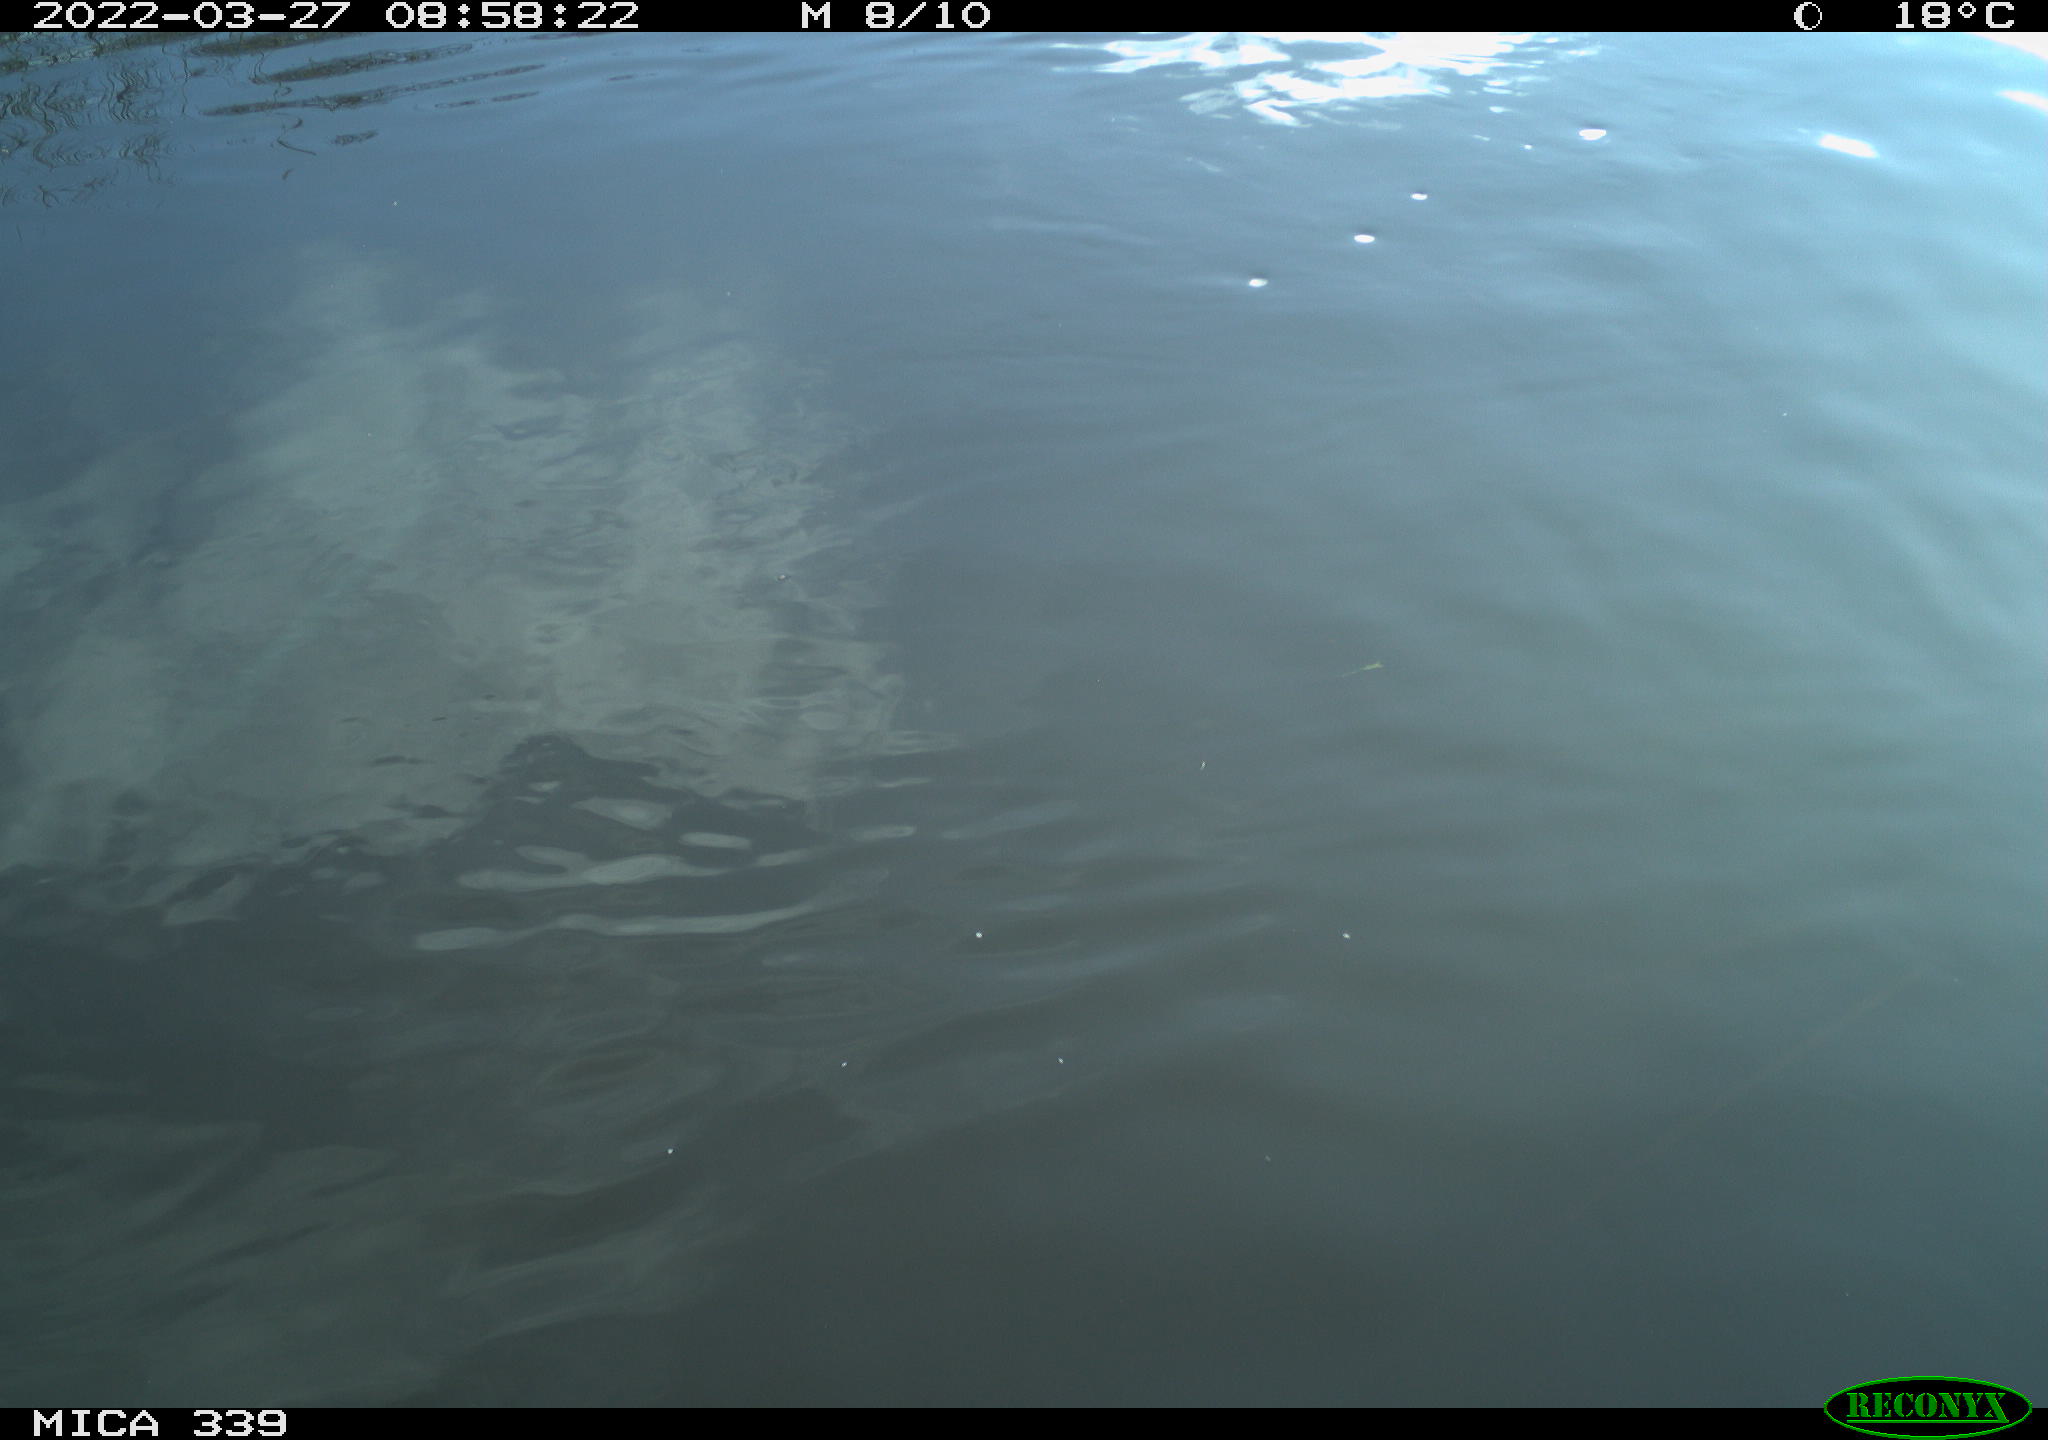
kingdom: Animalia
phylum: Chordata
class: Aves
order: Anseriformes
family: Anatidae
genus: Anas
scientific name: Anas platyrhynchos
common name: Mallard
